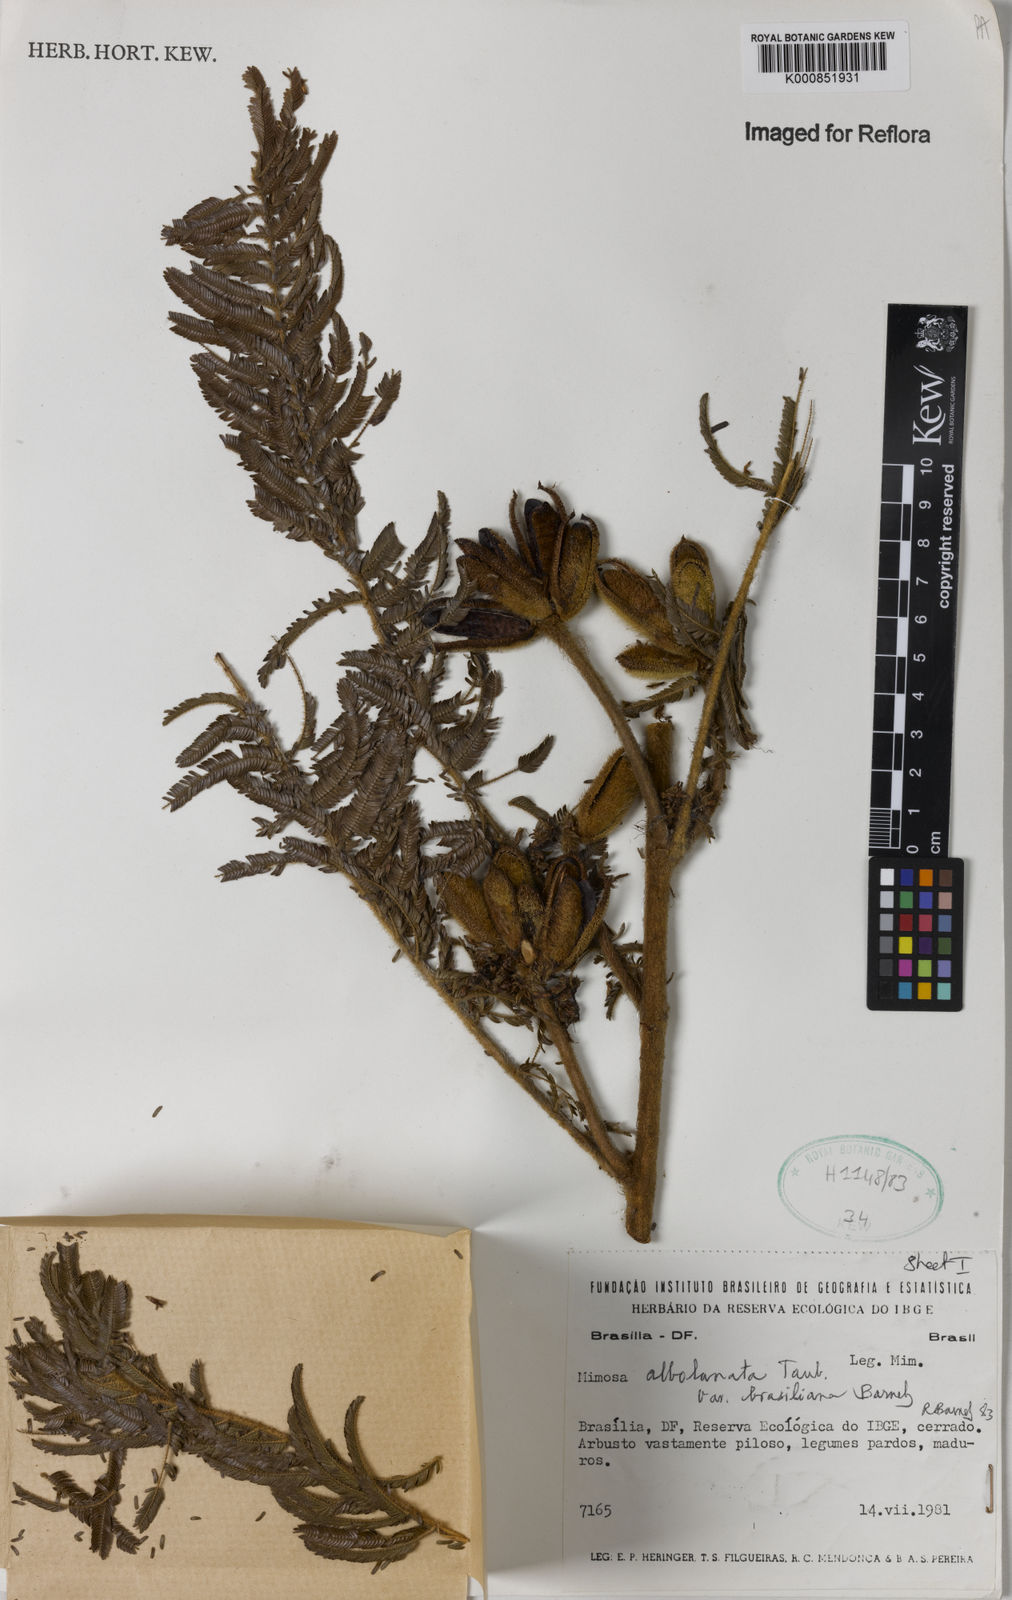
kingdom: Plantae
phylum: Tracheophyta
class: Magnoliopsida
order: Fabales
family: Fabaceae
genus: Mimosa
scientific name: Mimosa albolanata
